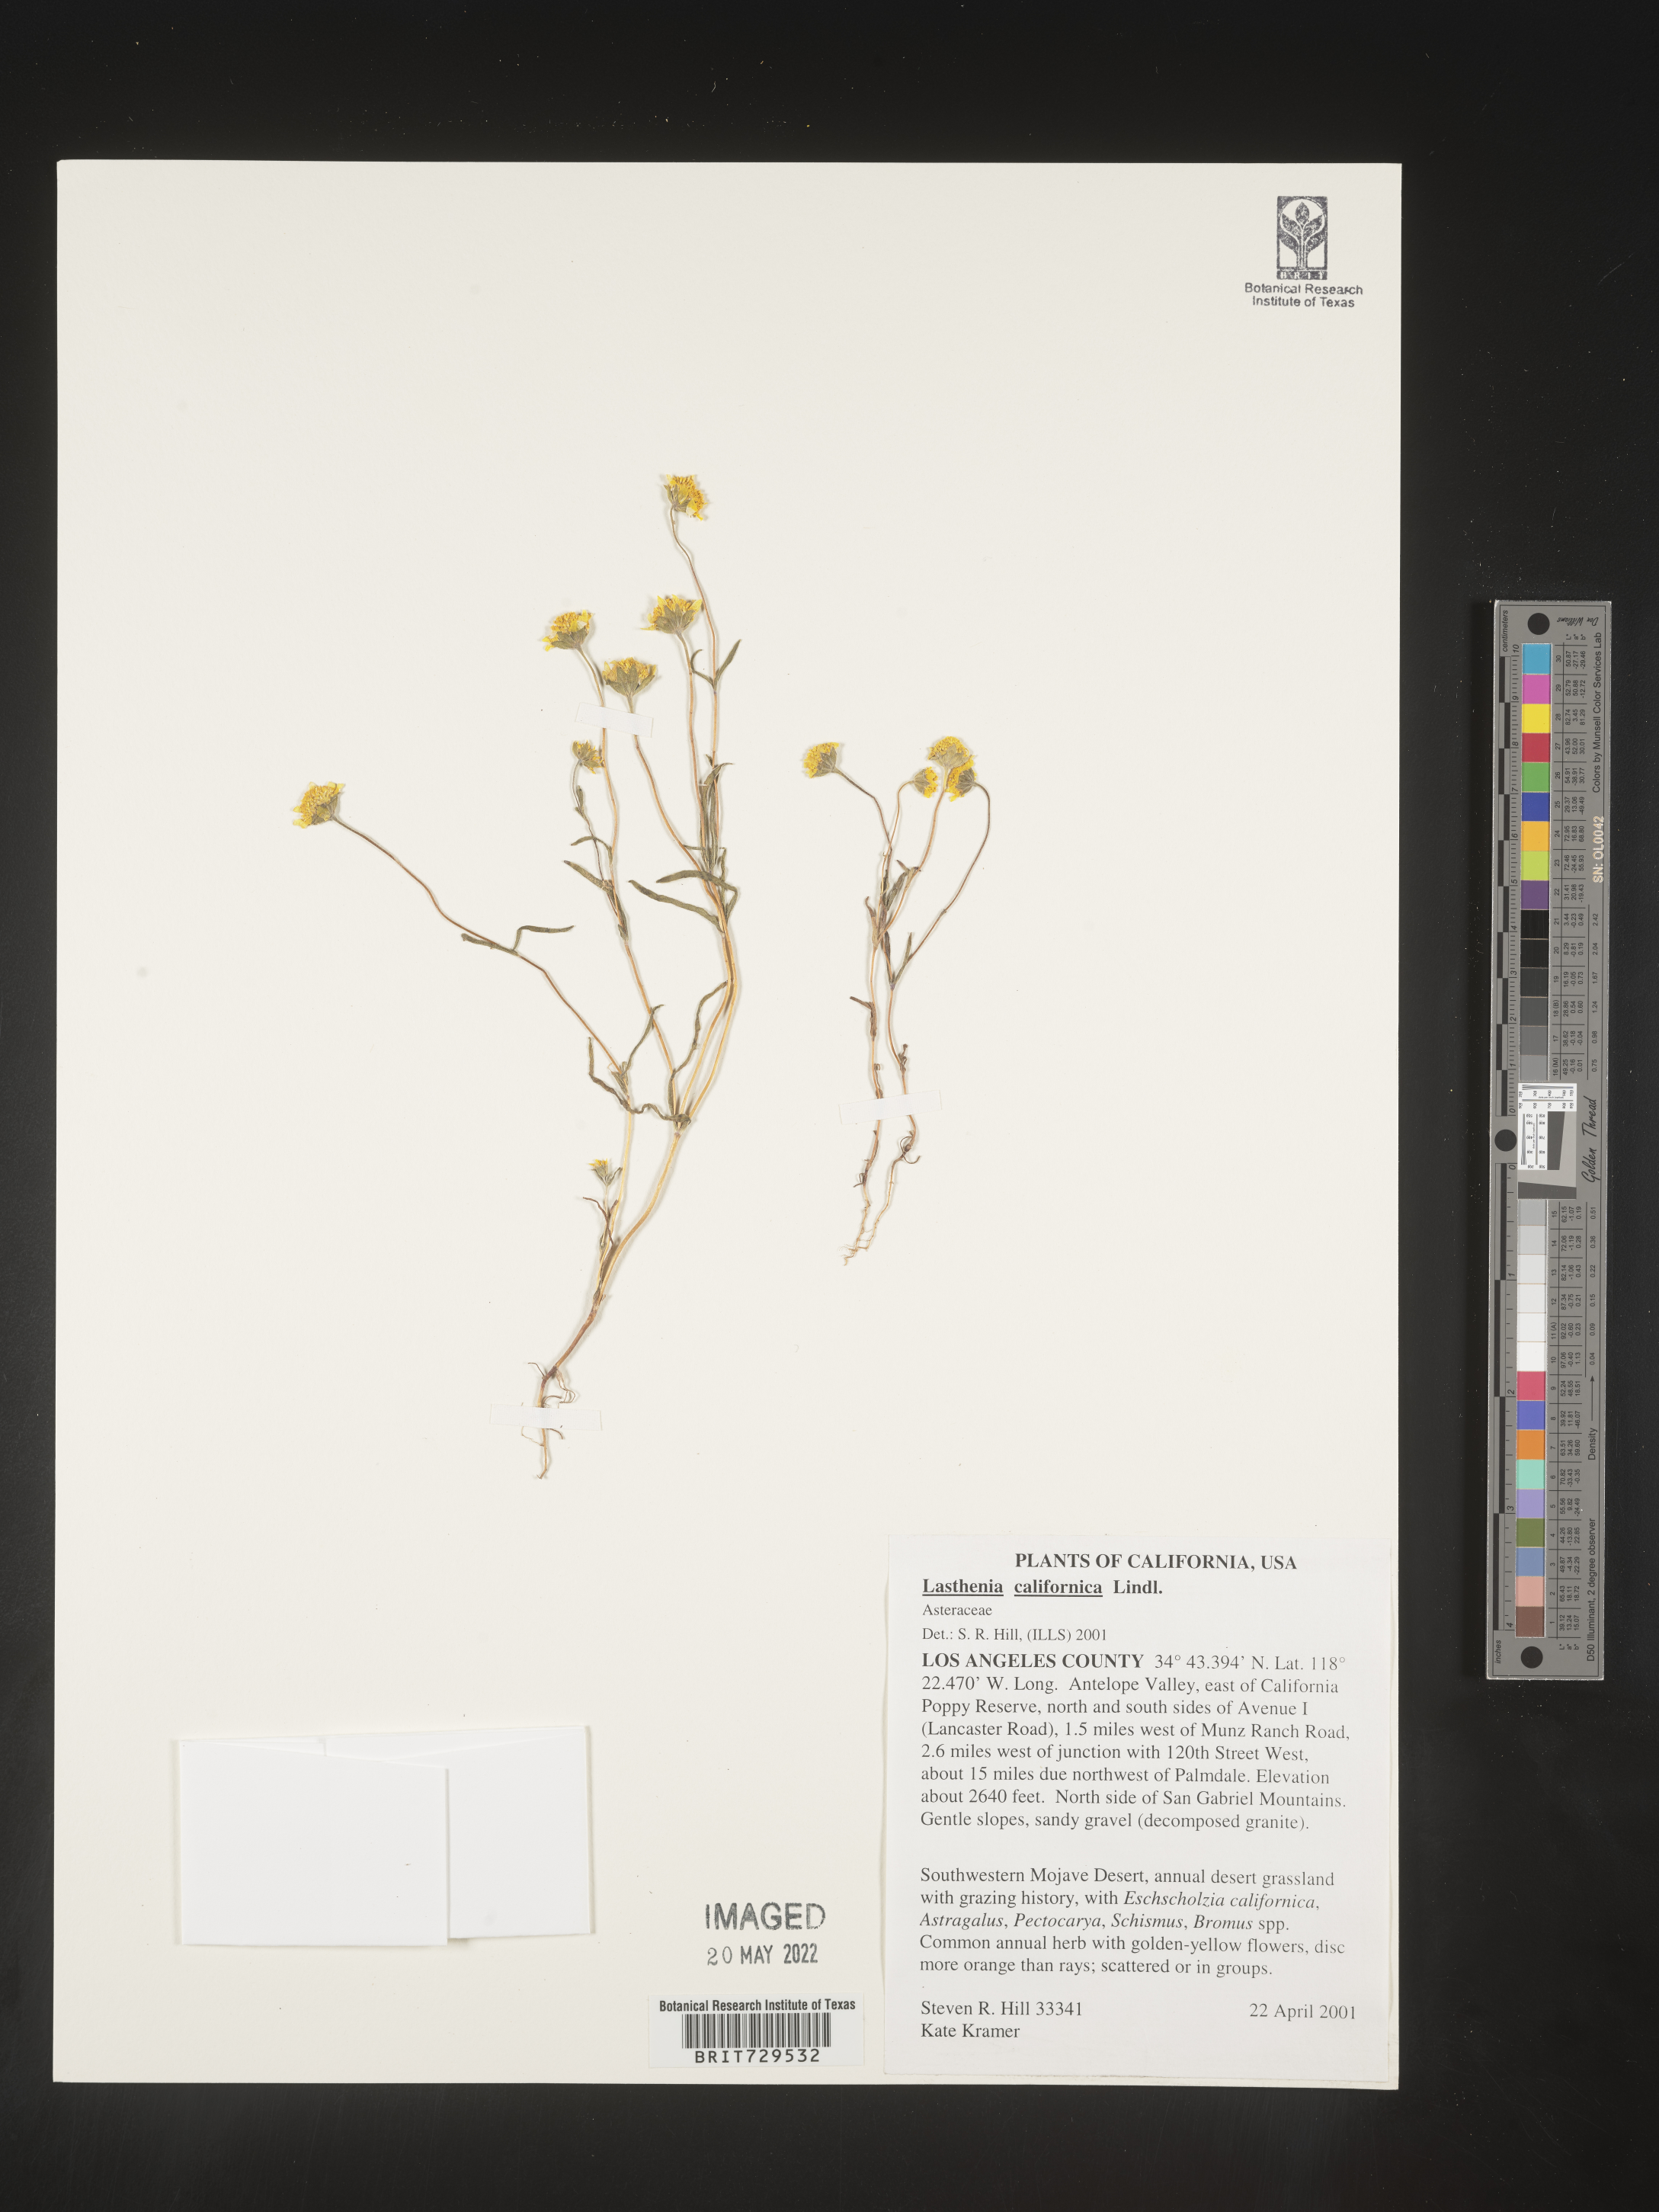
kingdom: Plantae
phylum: Tracheophyta
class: Magnoliopsida
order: Asterales
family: Asteraceae
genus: Lasthenia
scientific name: Lasthenia
